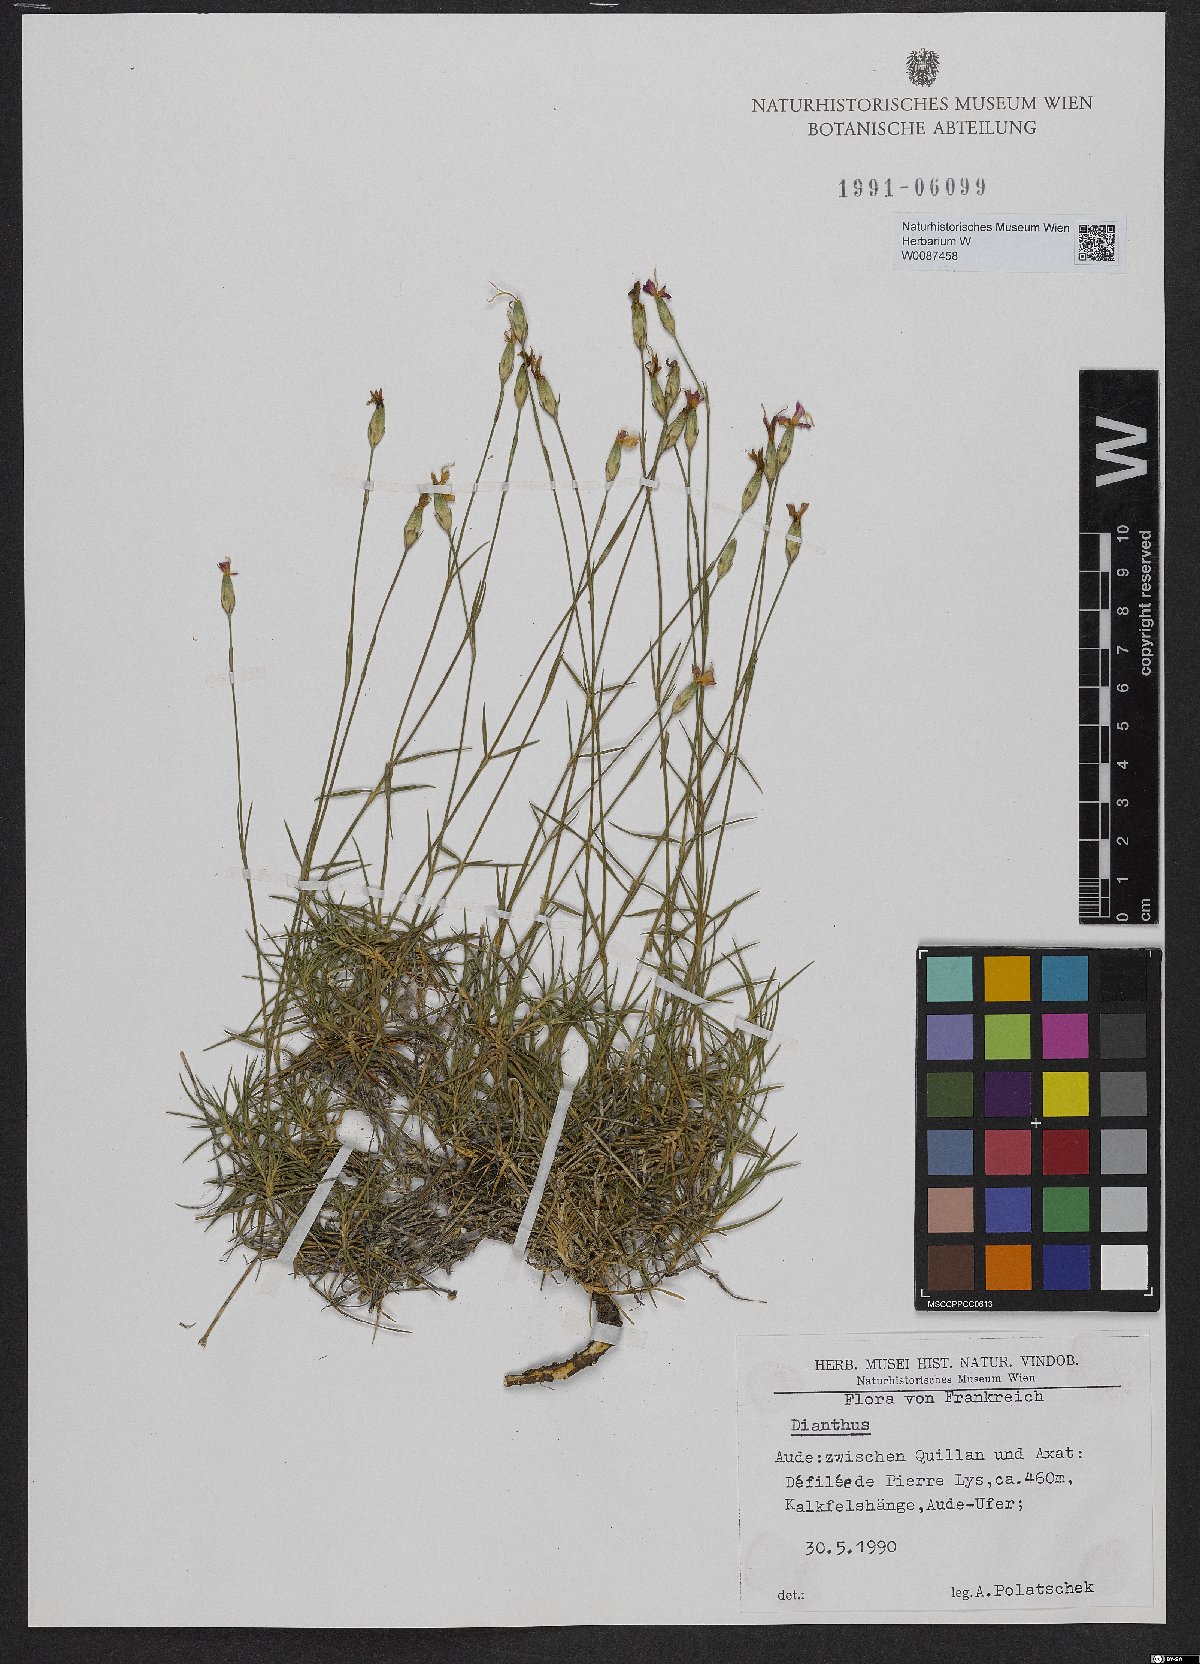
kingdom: Plantae
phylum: Tracheophyta
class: Magnoliopsida
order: Caryophyllales
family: Caryophyllaceae
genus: Dianthus
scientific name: Dianthus
